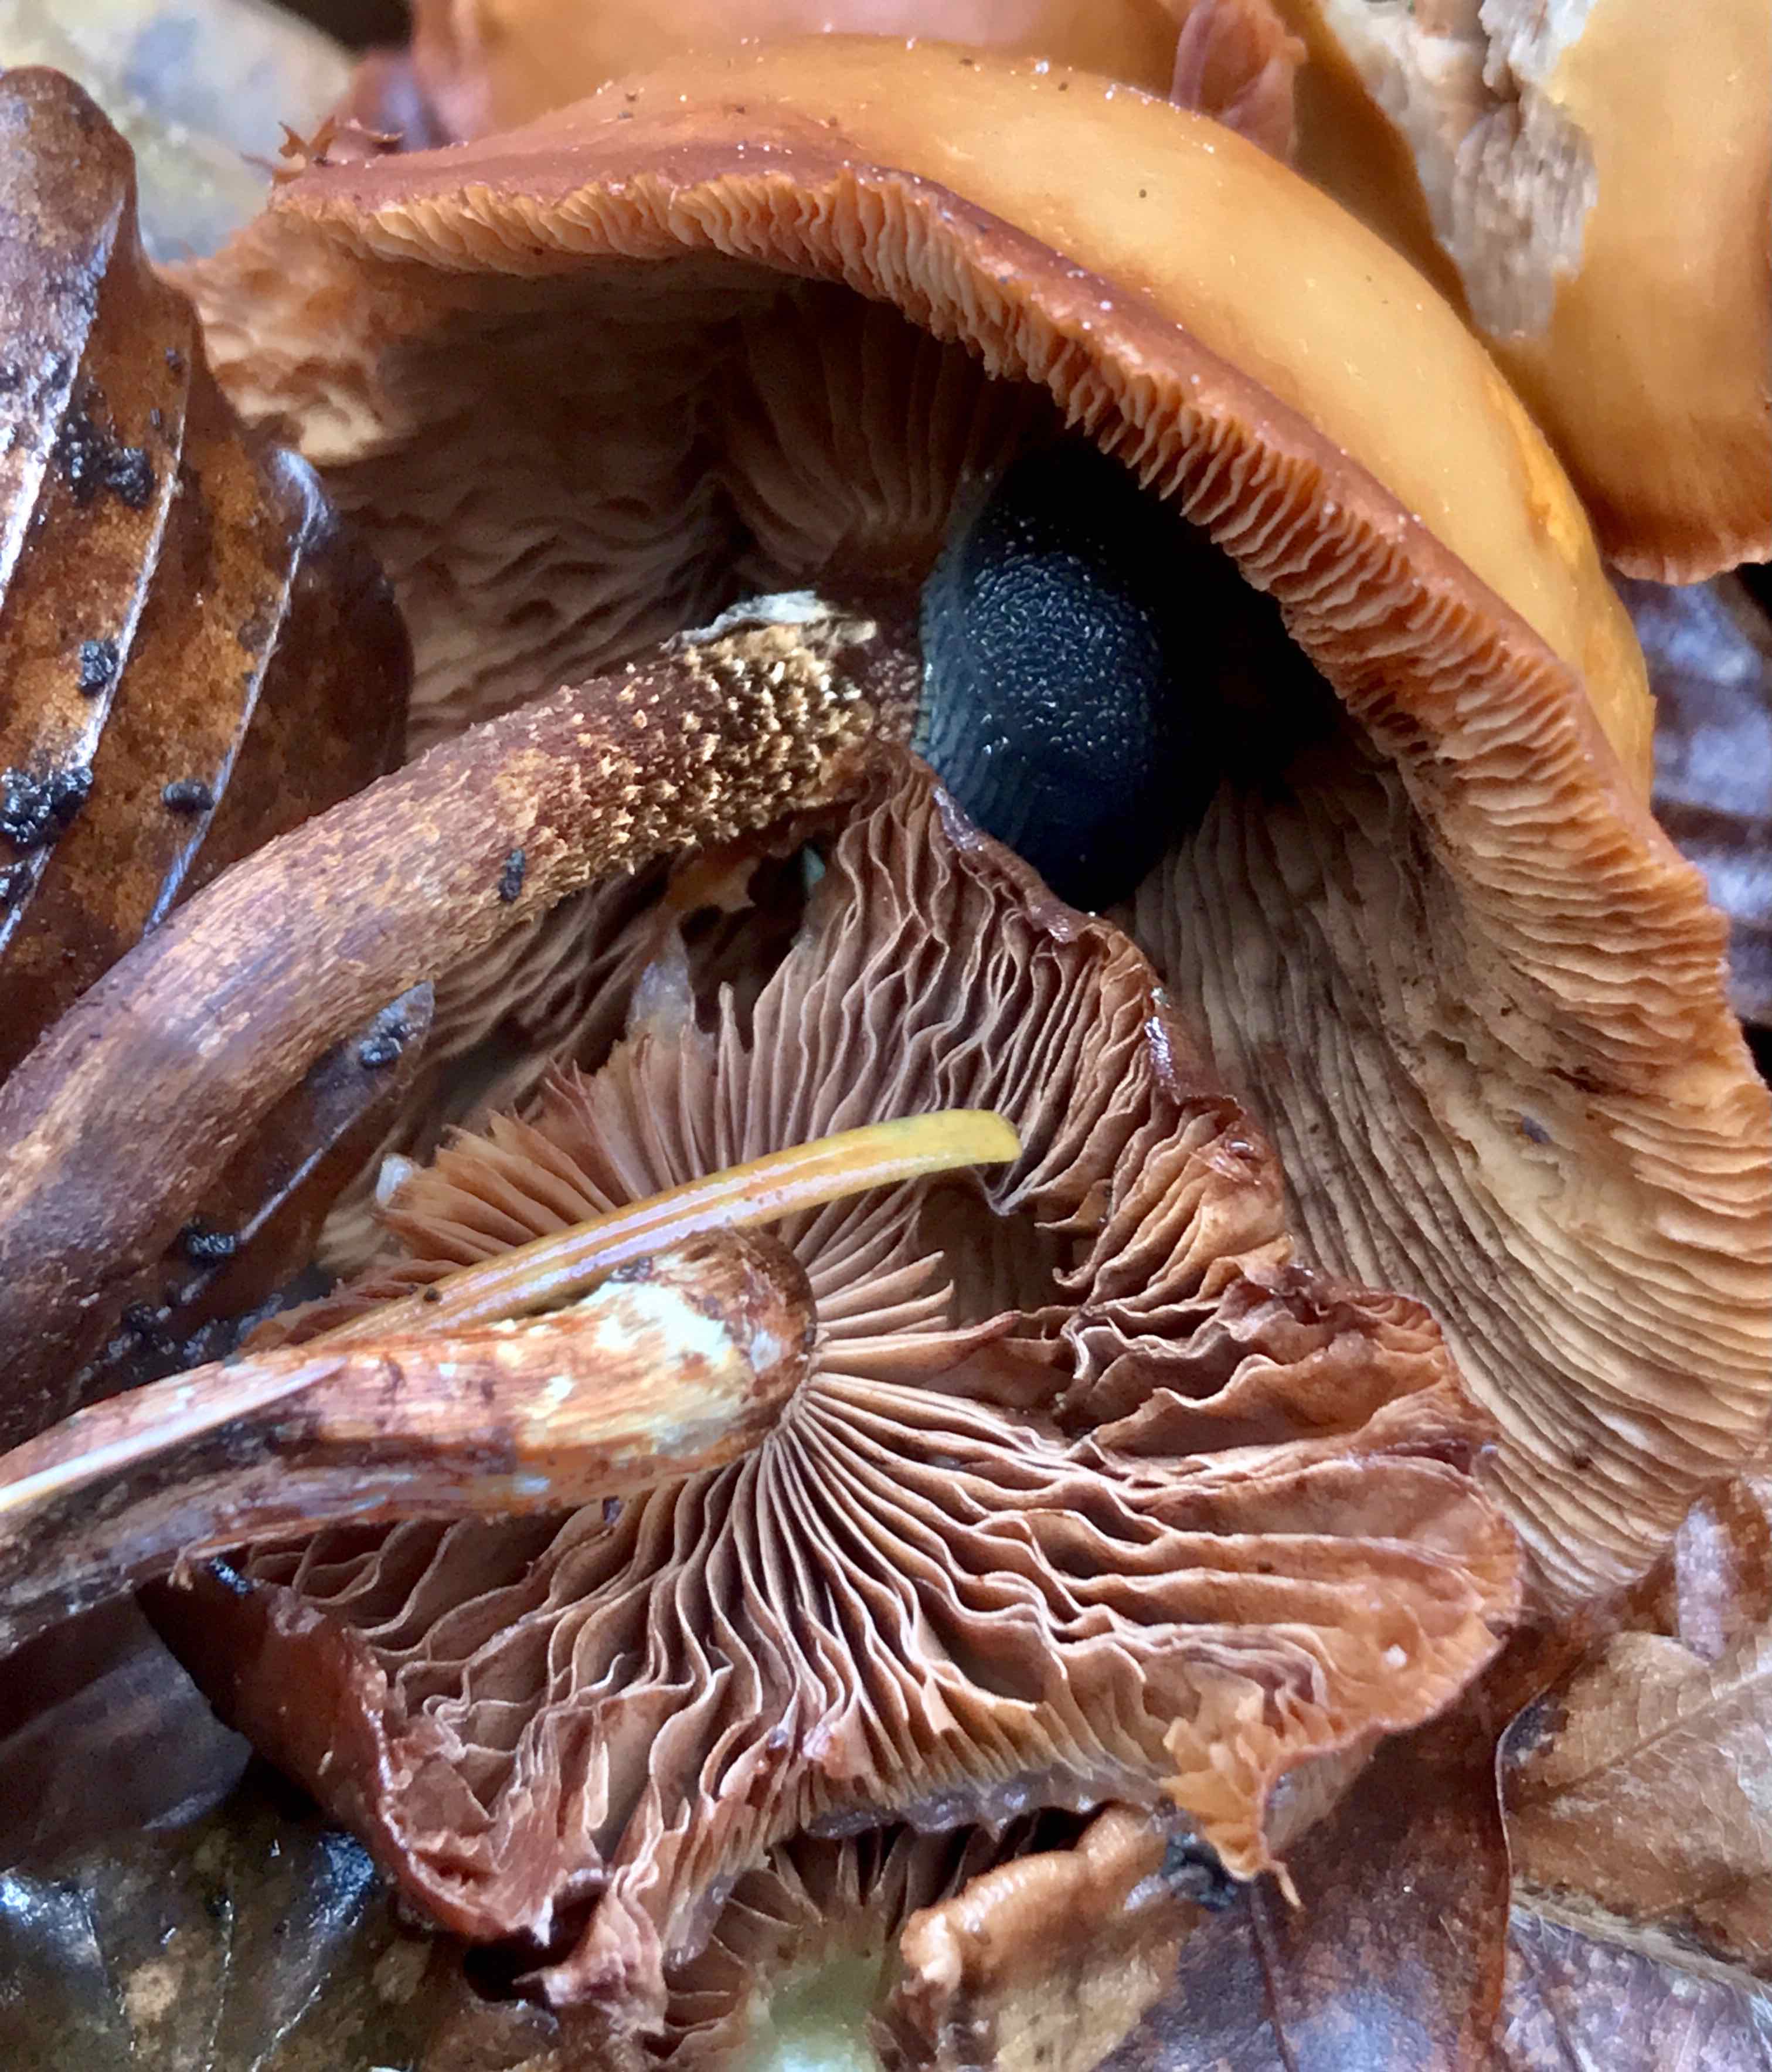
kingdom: Fungi
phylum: Basidiomycota
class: Agaricomycetes
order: Agaricales
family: Strophariaceae
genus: Kuehneromyces
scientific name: Kuehneromyces mutabilis
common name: foranderlig skælhat
